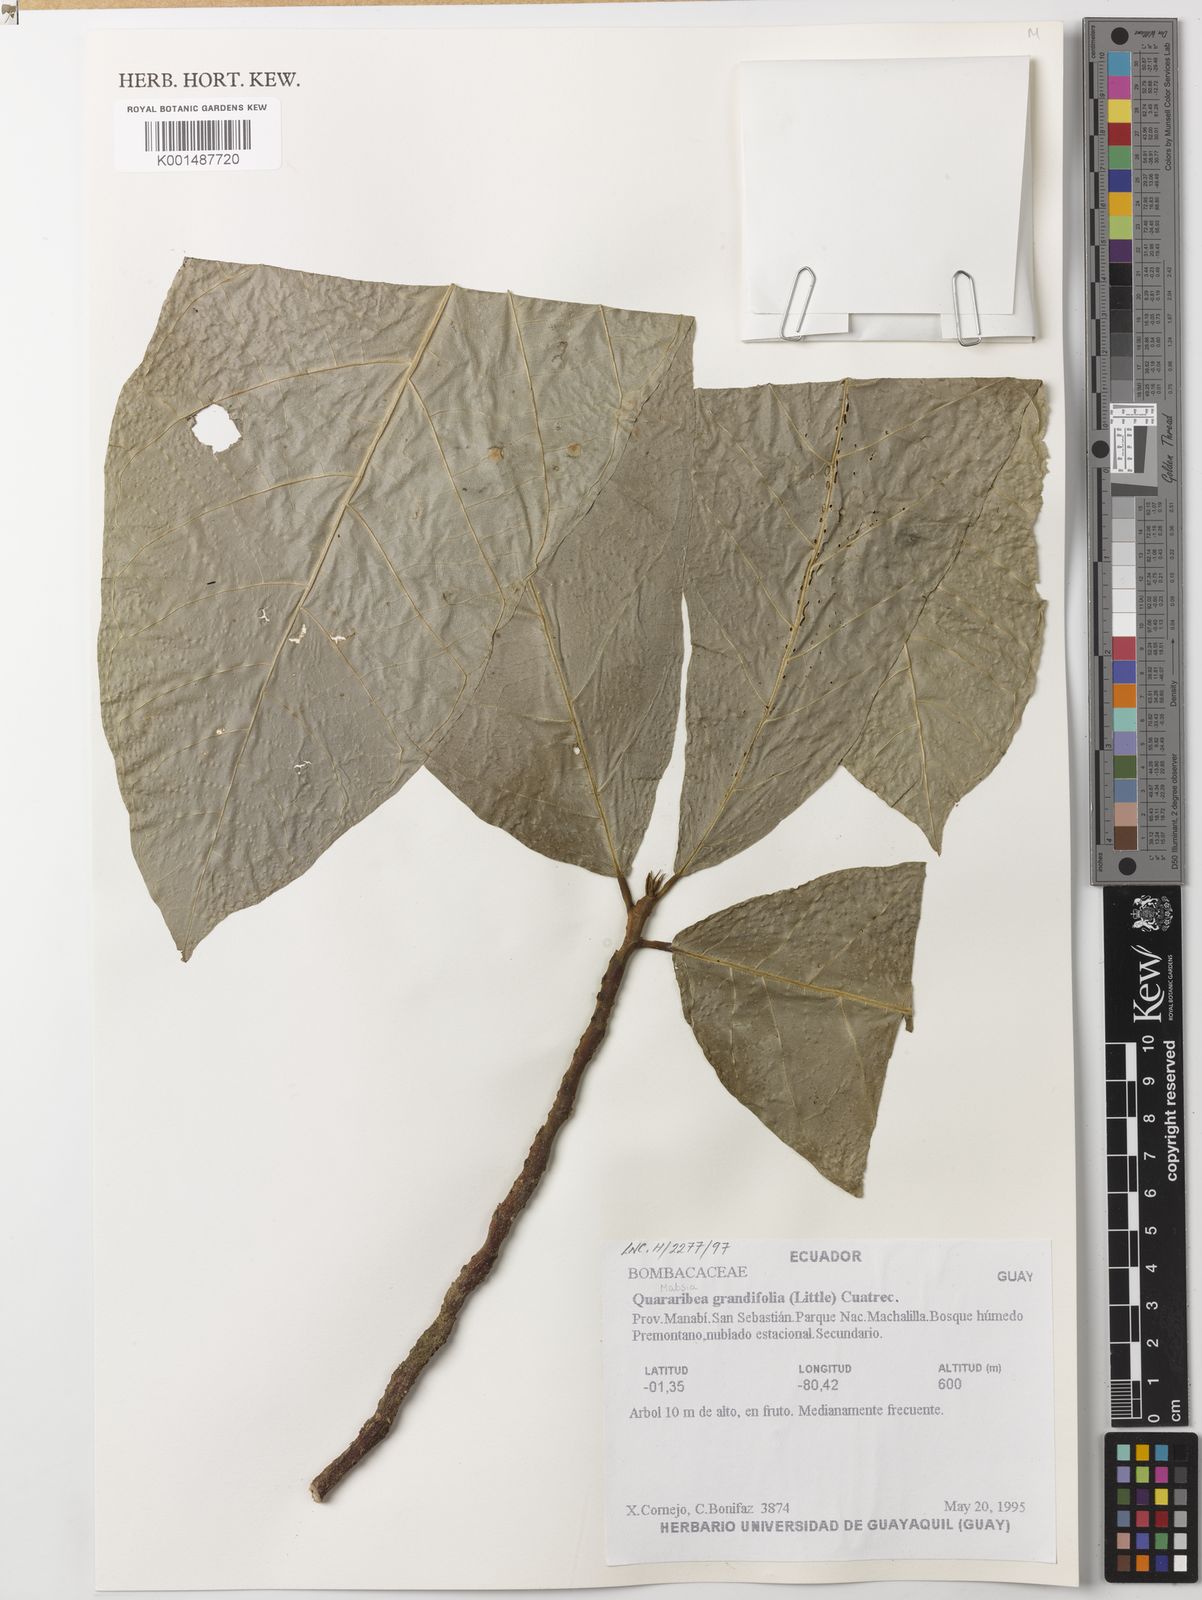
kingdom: Plantae
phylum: Tracheophyta
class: Magnoliopsida
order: Malvales
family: Malvaceae
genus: Quararibea
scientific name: Quararibea grandifolia
